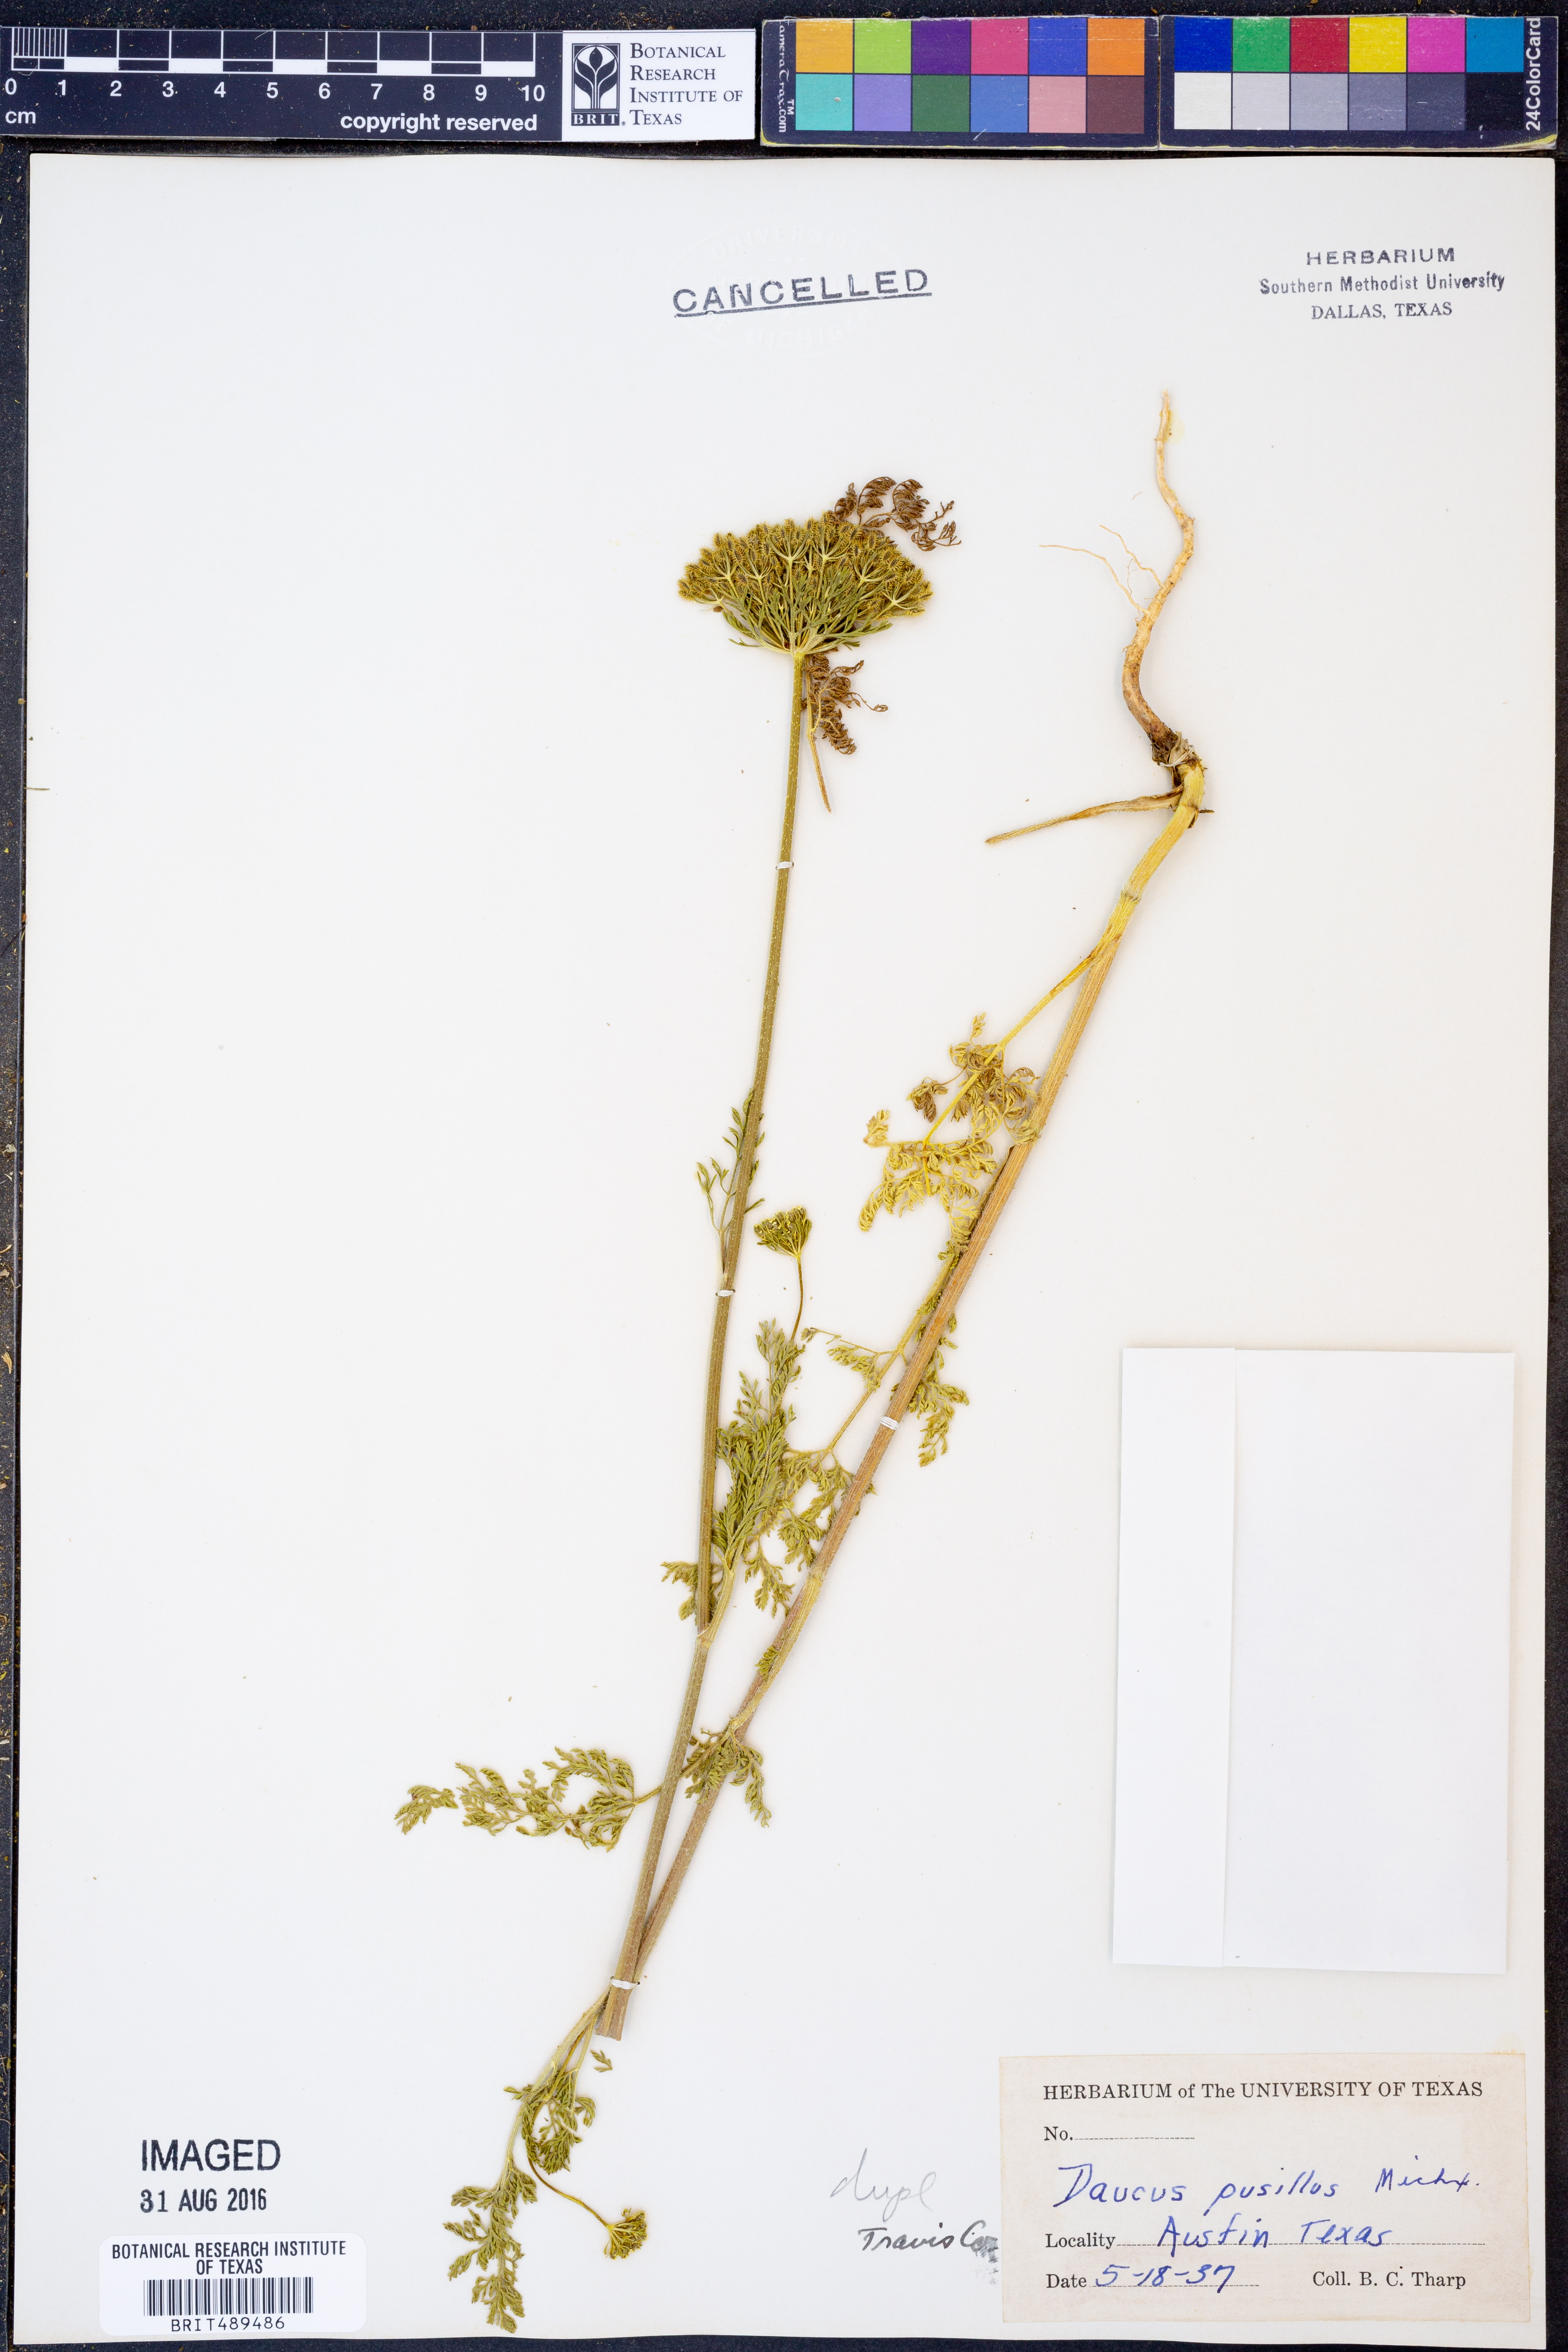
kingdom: Plantae
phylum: Tracheophyta
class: Magnoliopsida
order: Apiales
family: Apiaceae
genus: Daucus
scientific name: Daucus pusillus
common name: Southwest wild carrot
